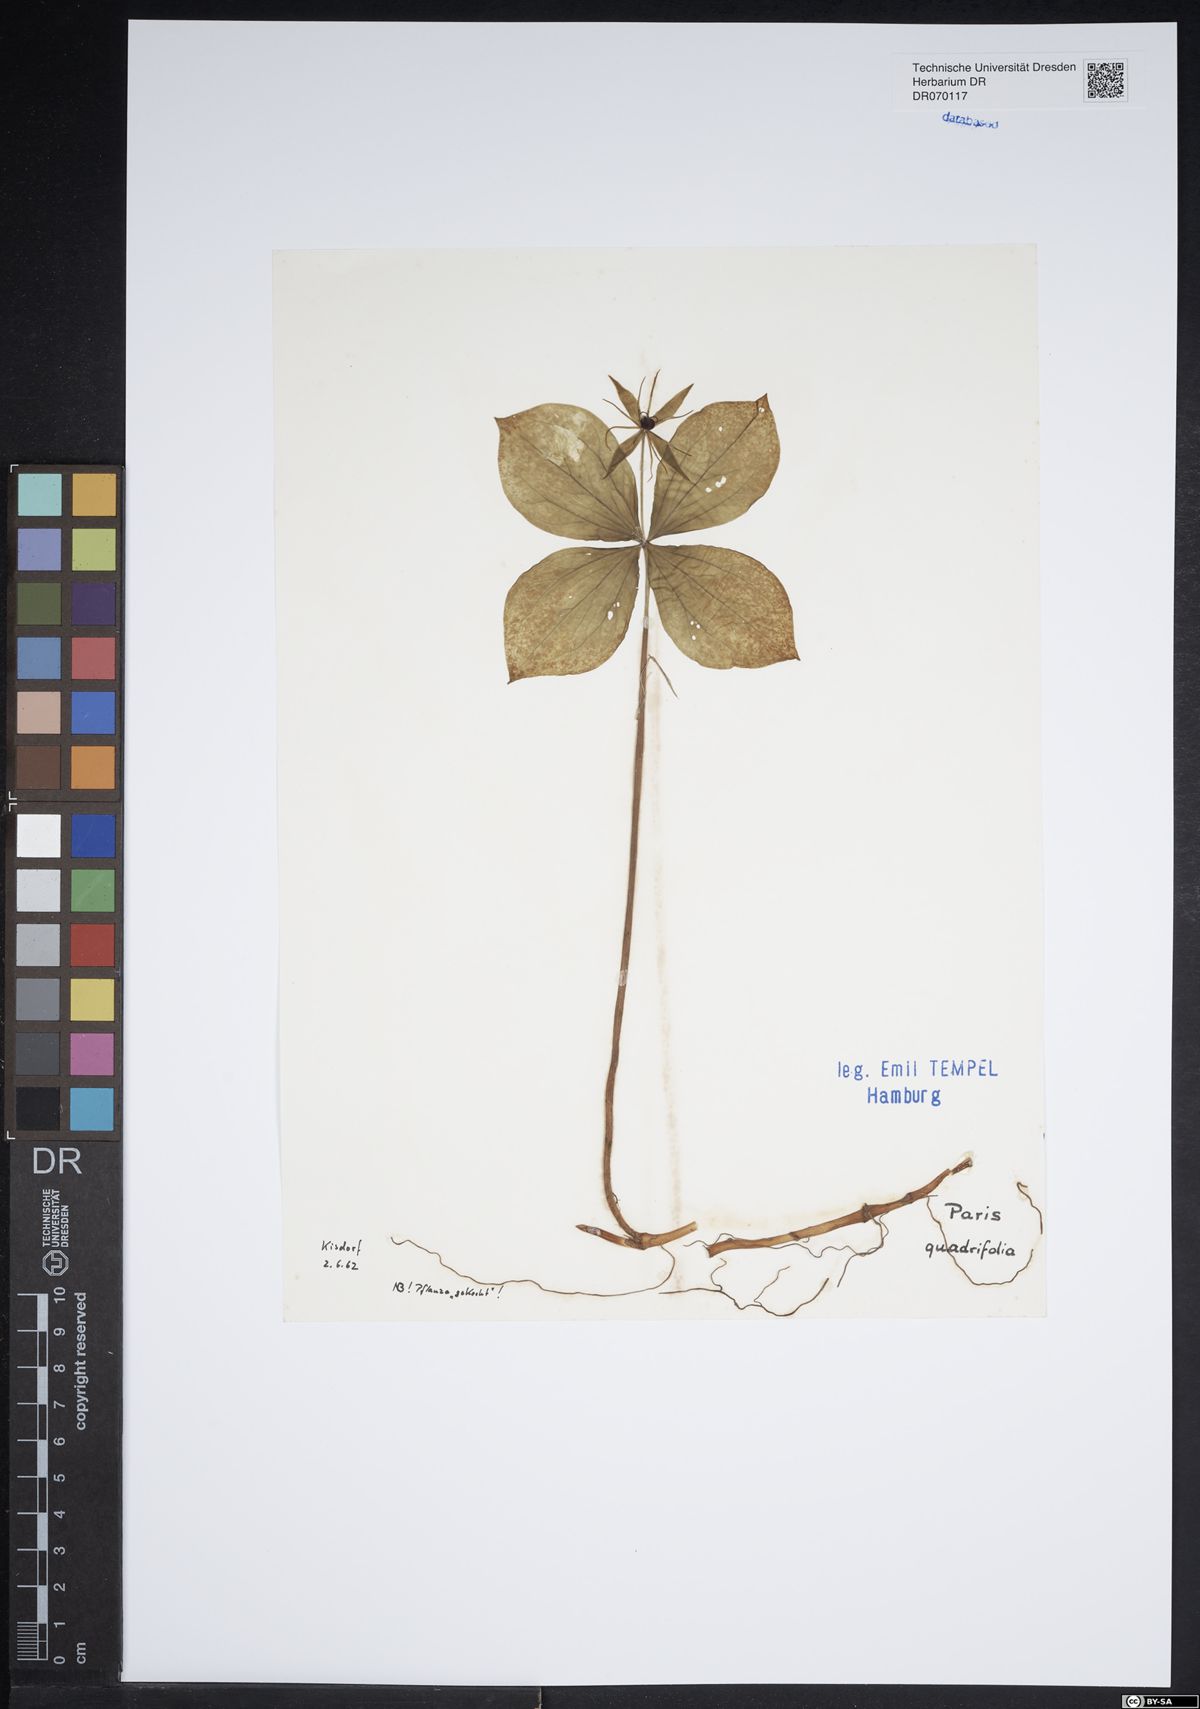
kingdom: Plantae
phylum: Tracheophyta
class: Liliopsida
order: Liliales
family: Melanthiaceae
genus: Paris
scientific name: Paris quadrifolia
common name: Herb-paris
